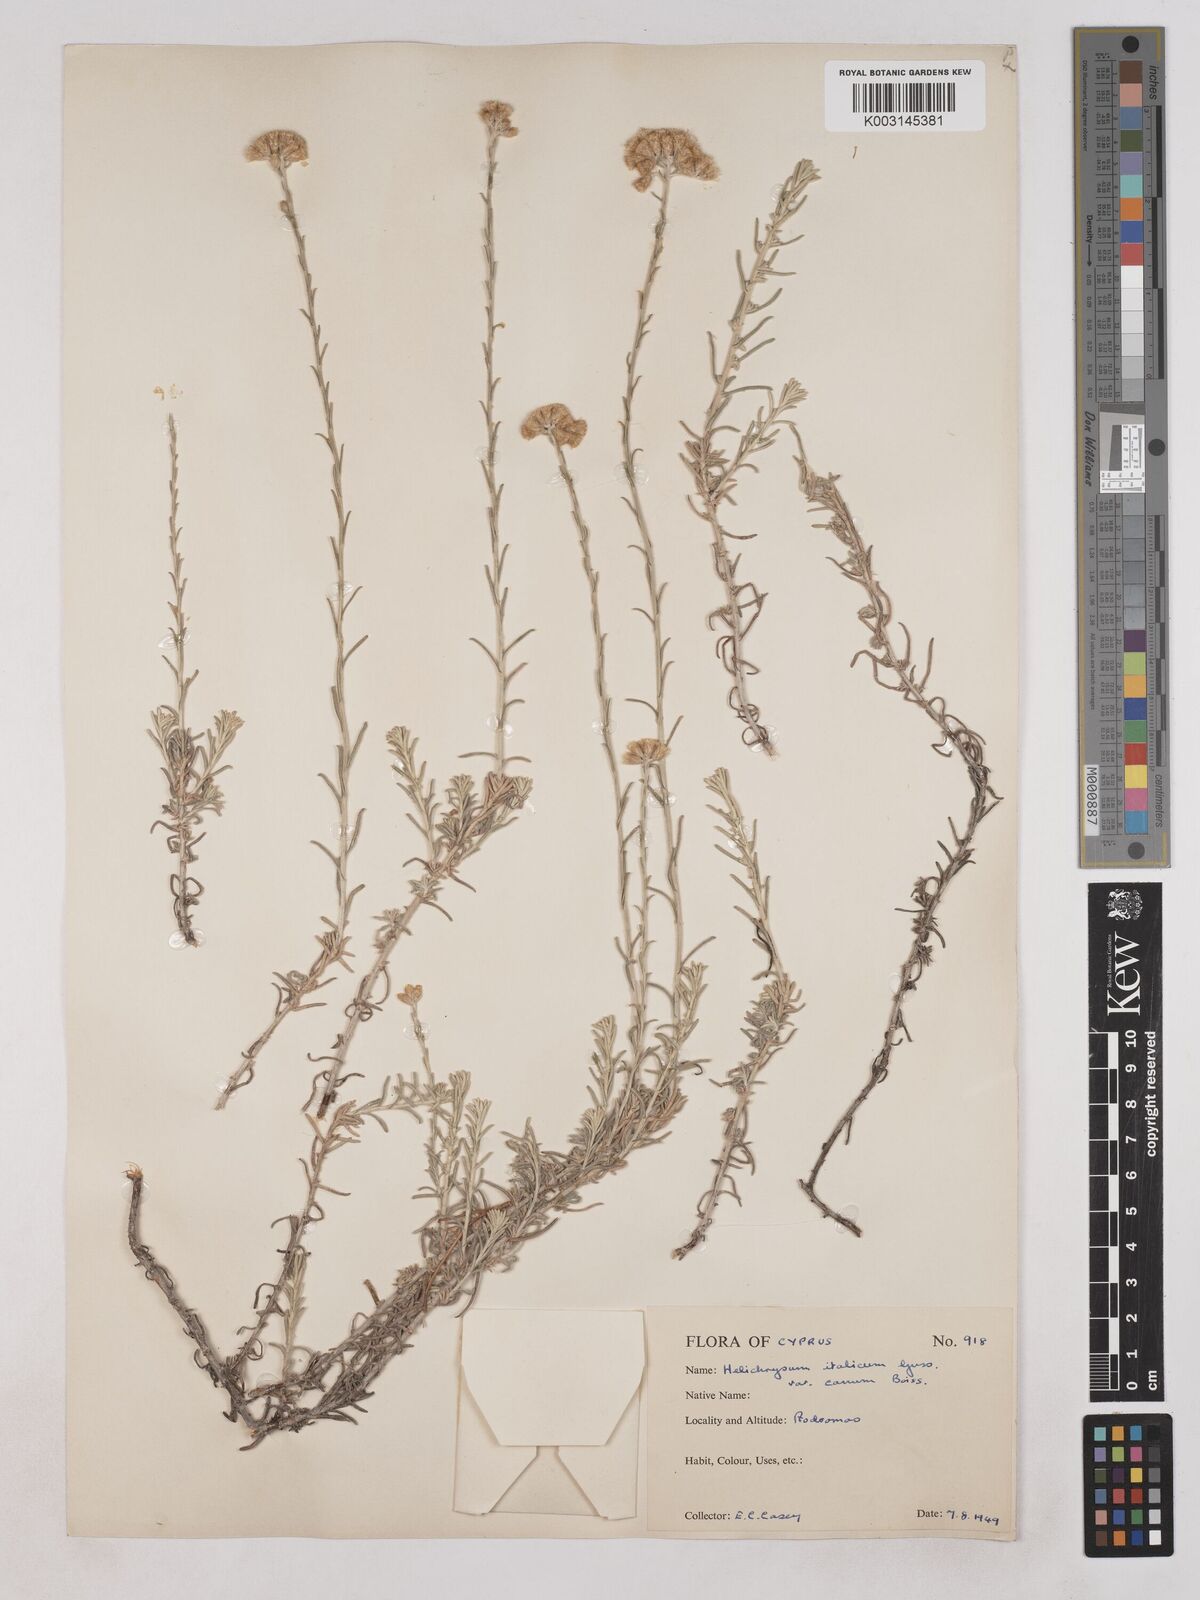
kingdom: Plantae
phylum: Tracheophyta
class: Magnoliopsida
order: Asterales
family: Asteraceae
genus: Helichrysum
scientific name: Helichrysum italicum
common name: Curryplant
